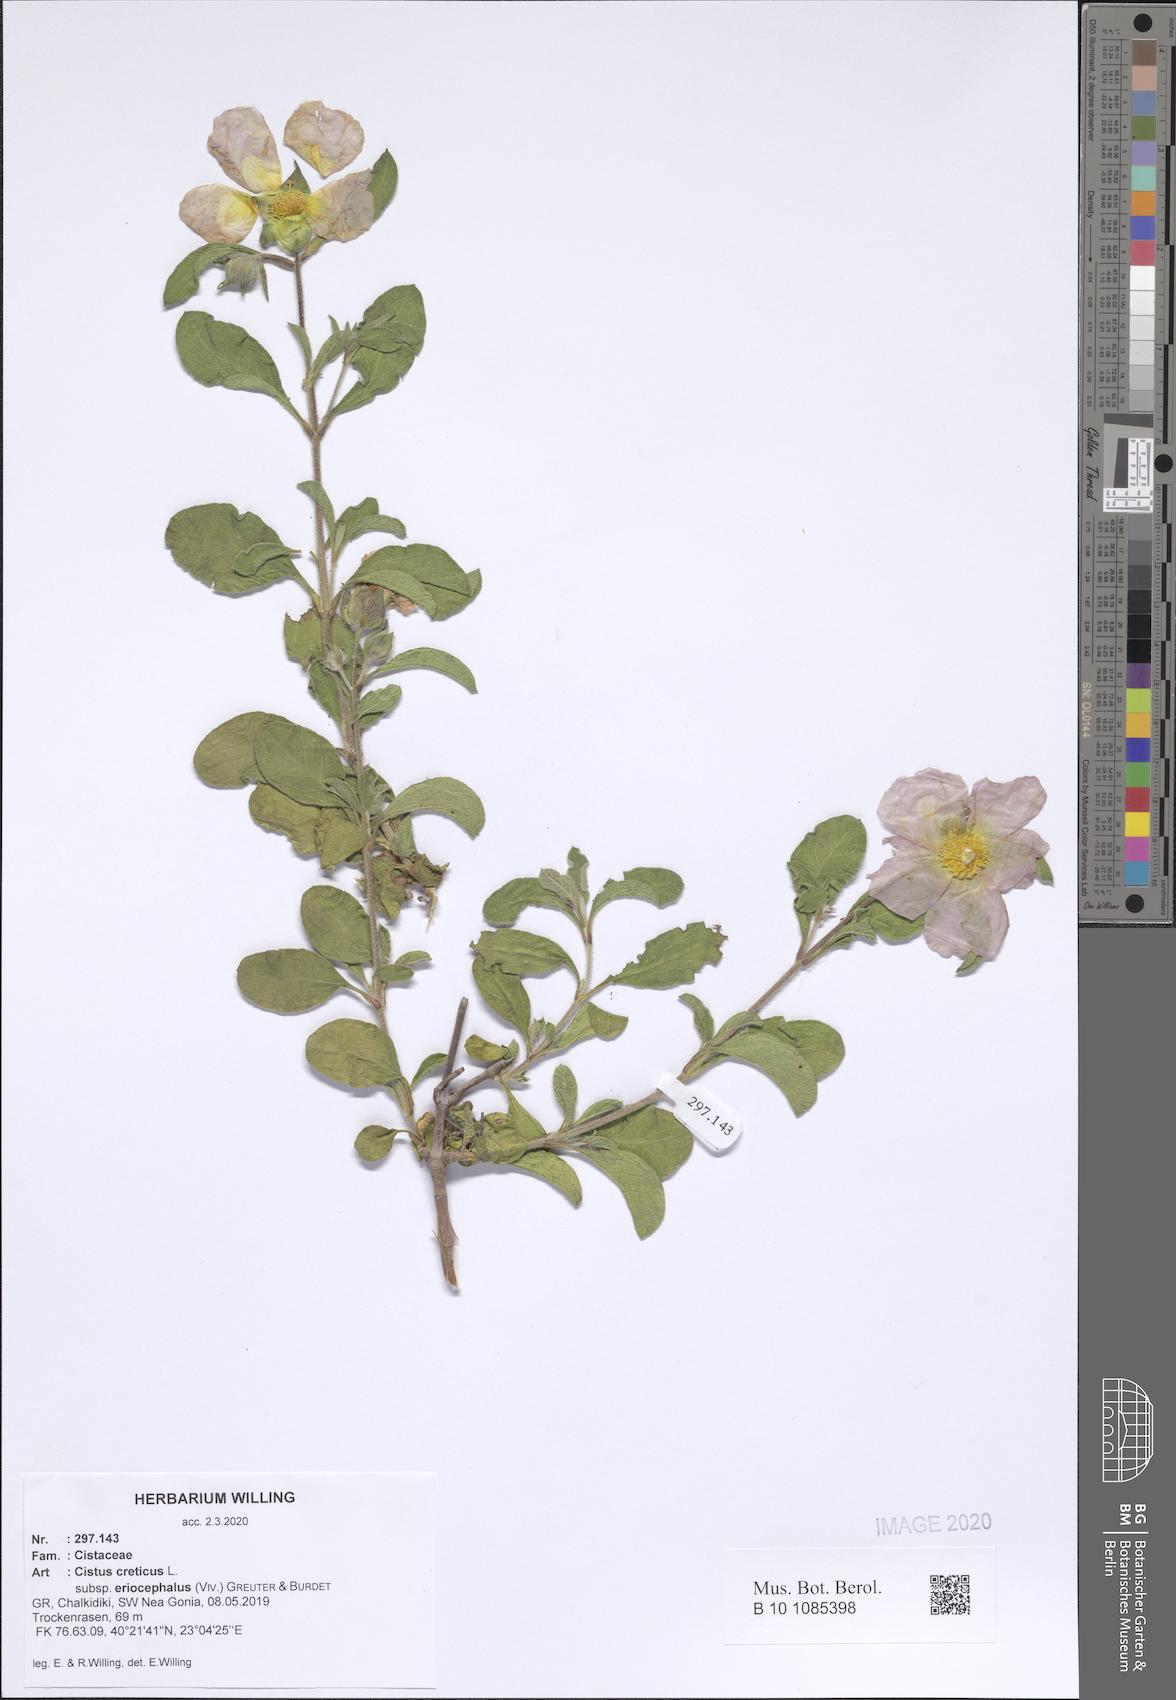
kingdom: Plantae
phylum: Tracheophyta
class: Magnoliopsida
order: Malvales
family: Cistaceae
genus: Cistus
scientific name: Cistus tauricus
